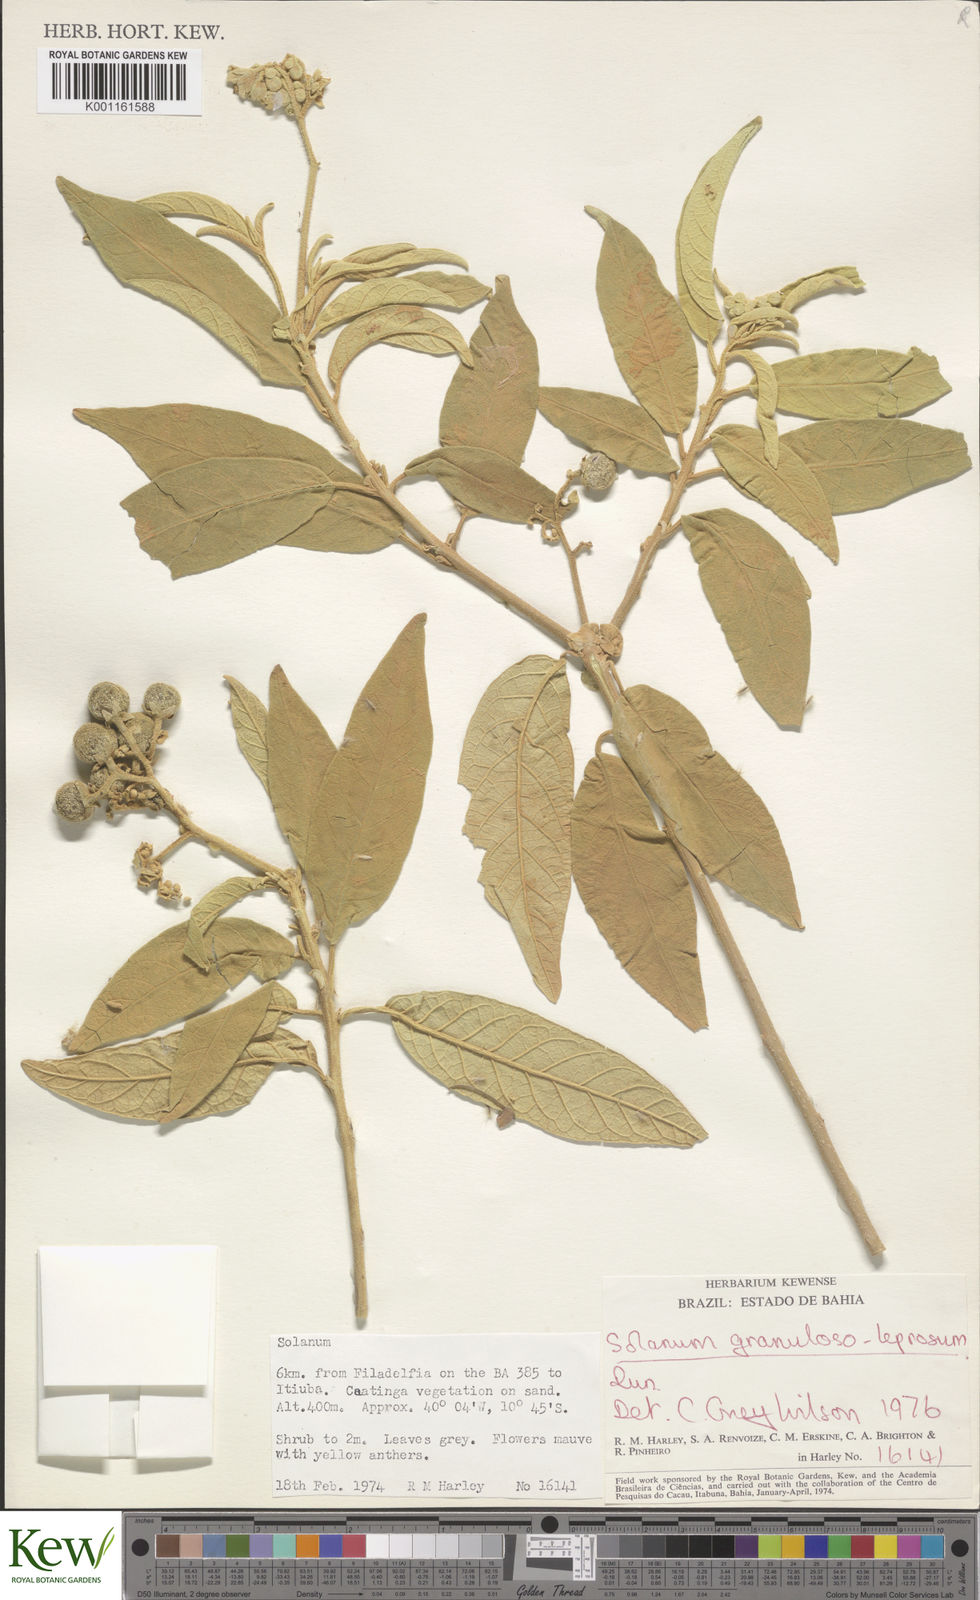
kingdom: Plantae
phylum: Tracheophyta
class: Magnoliopsida
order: Solanales
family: Solanaceae
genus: Solanum
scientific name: Solanum granulosoleprosum
